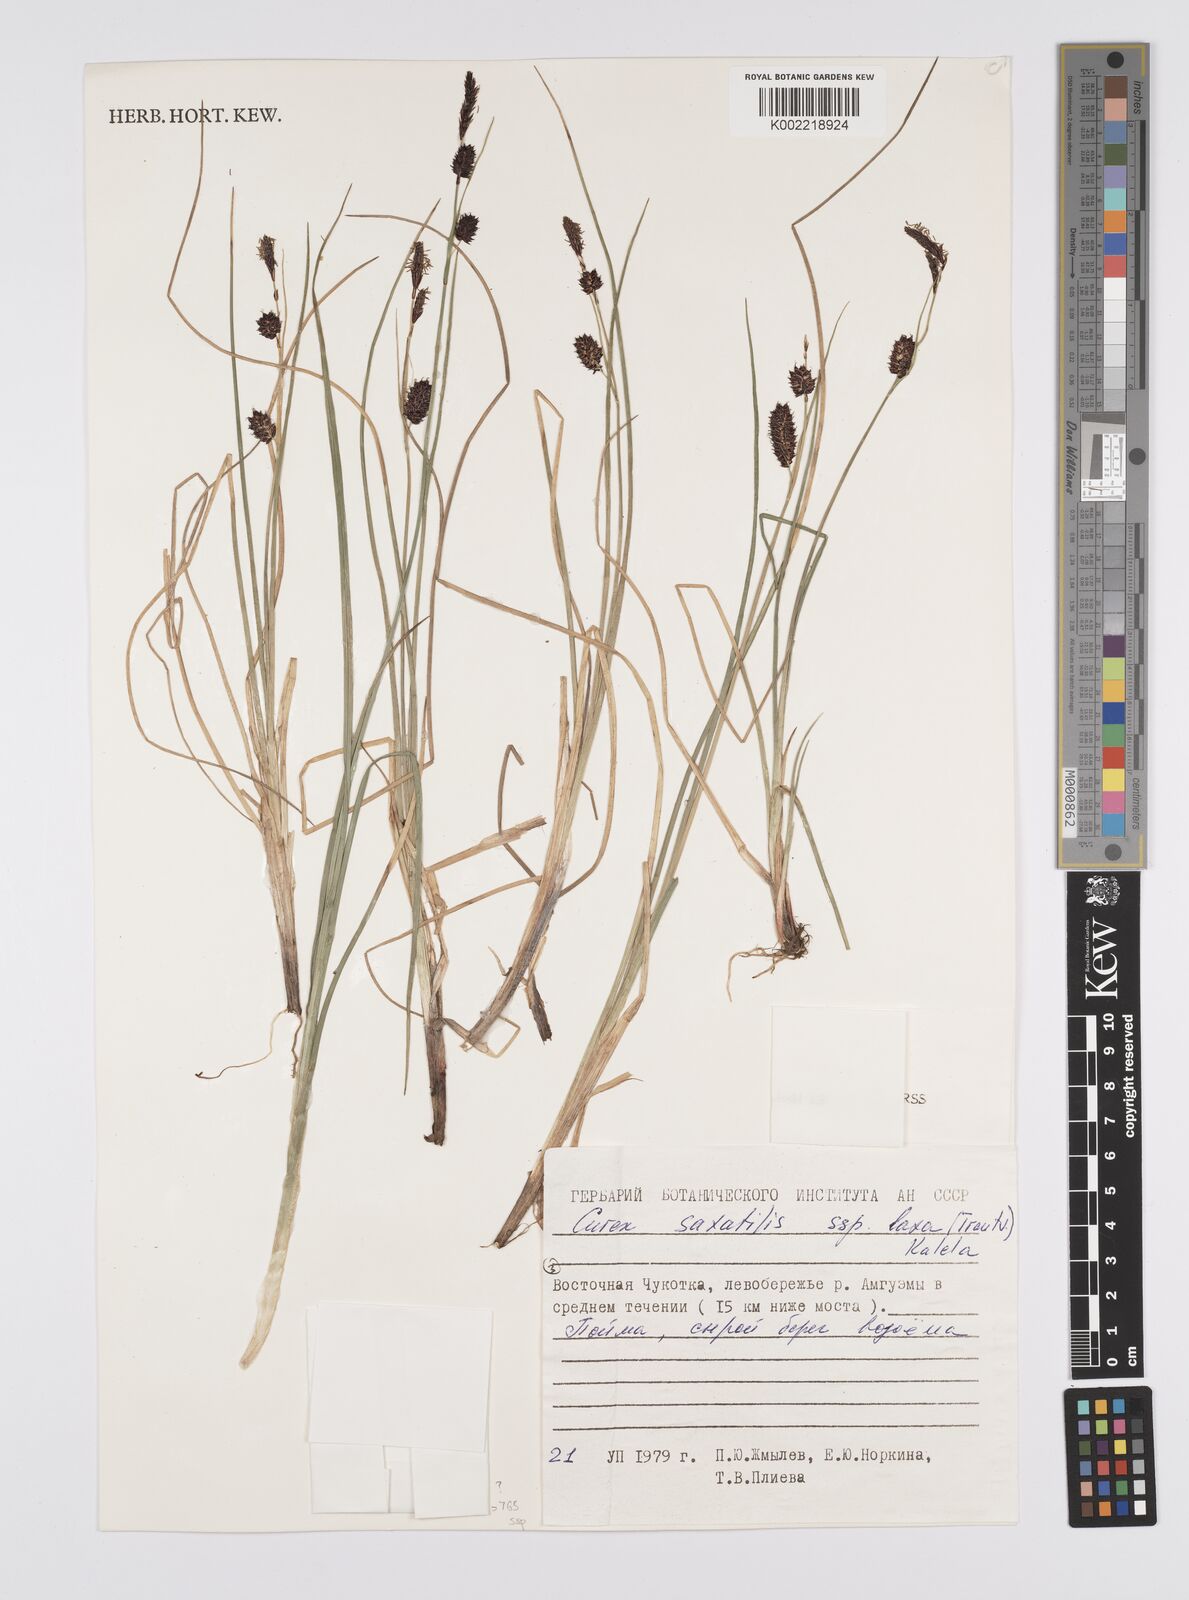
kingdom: Plantae
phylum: Tracheophyta
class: Liliopsida
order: Poales
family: Cyperaceae
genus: Carex
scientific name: Carex saxatilis
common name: Russet sedge
